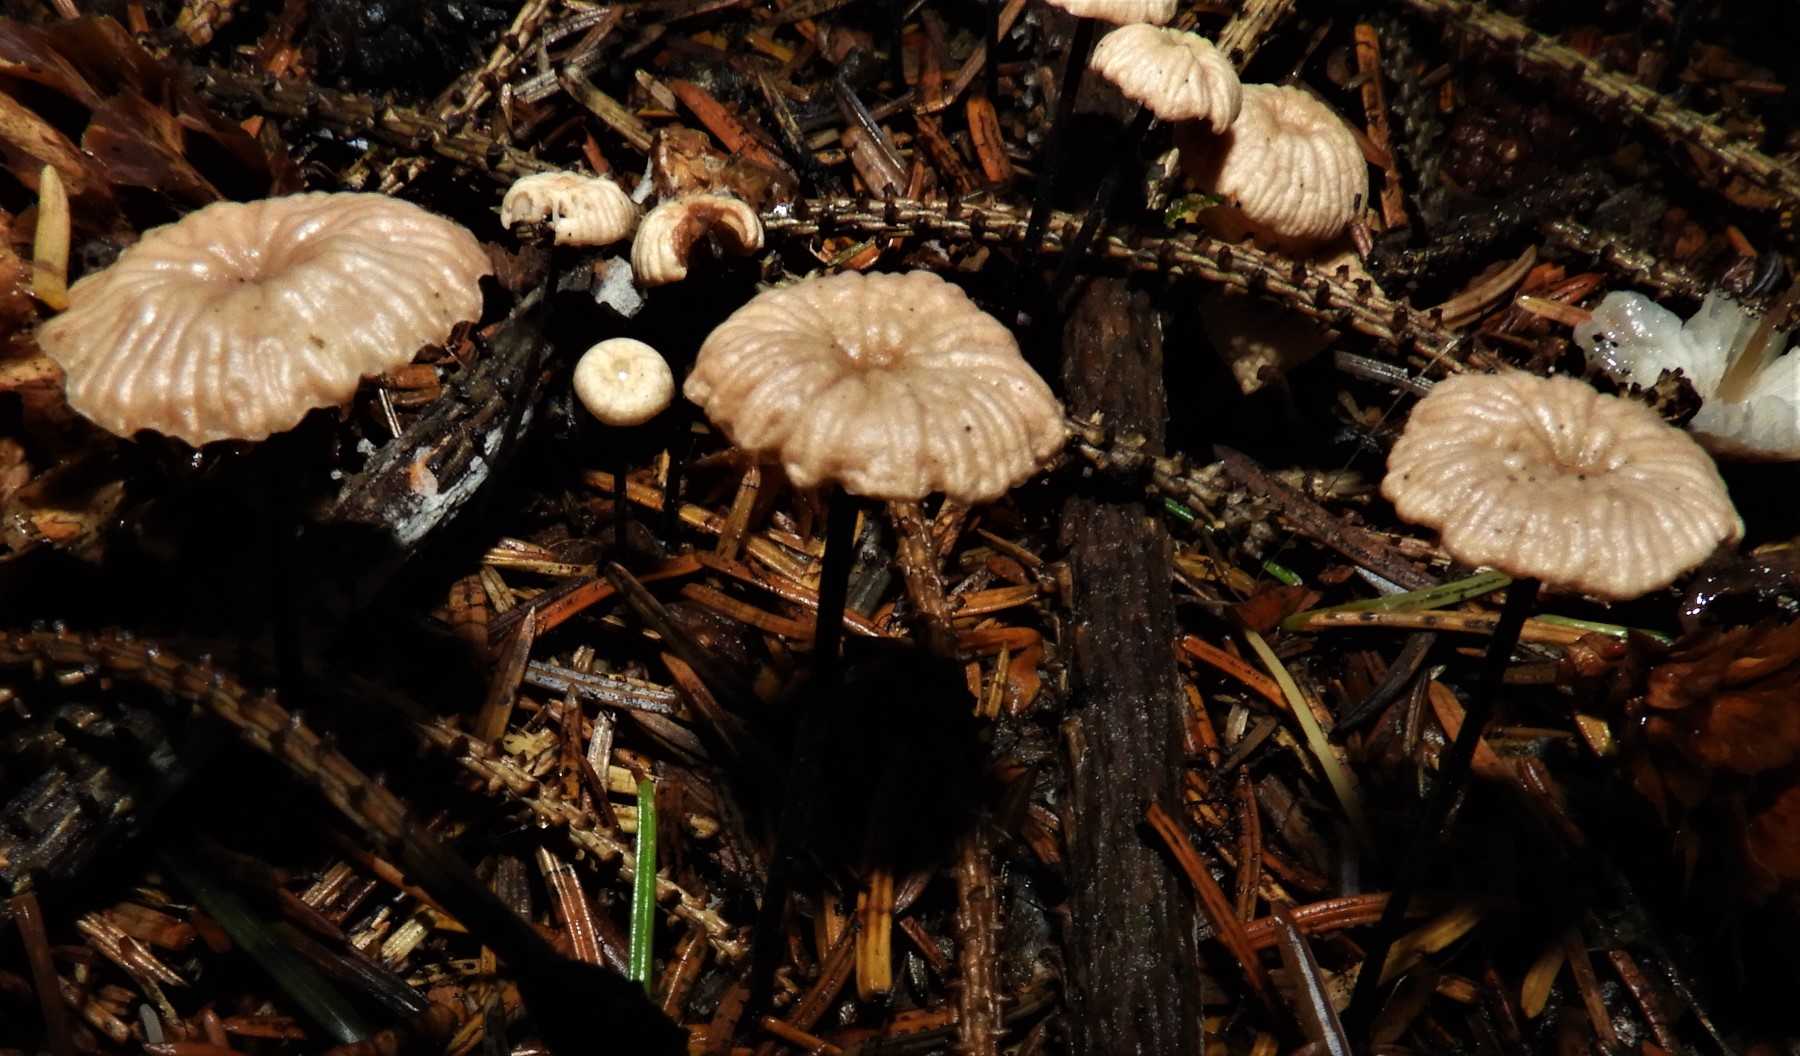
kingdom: Fungi
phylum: Basidiomycota
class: Agaricomycetes
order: Agaricales
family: Omphalotaceae
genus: Paragymnopus
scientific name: Paragymnopus perforans
